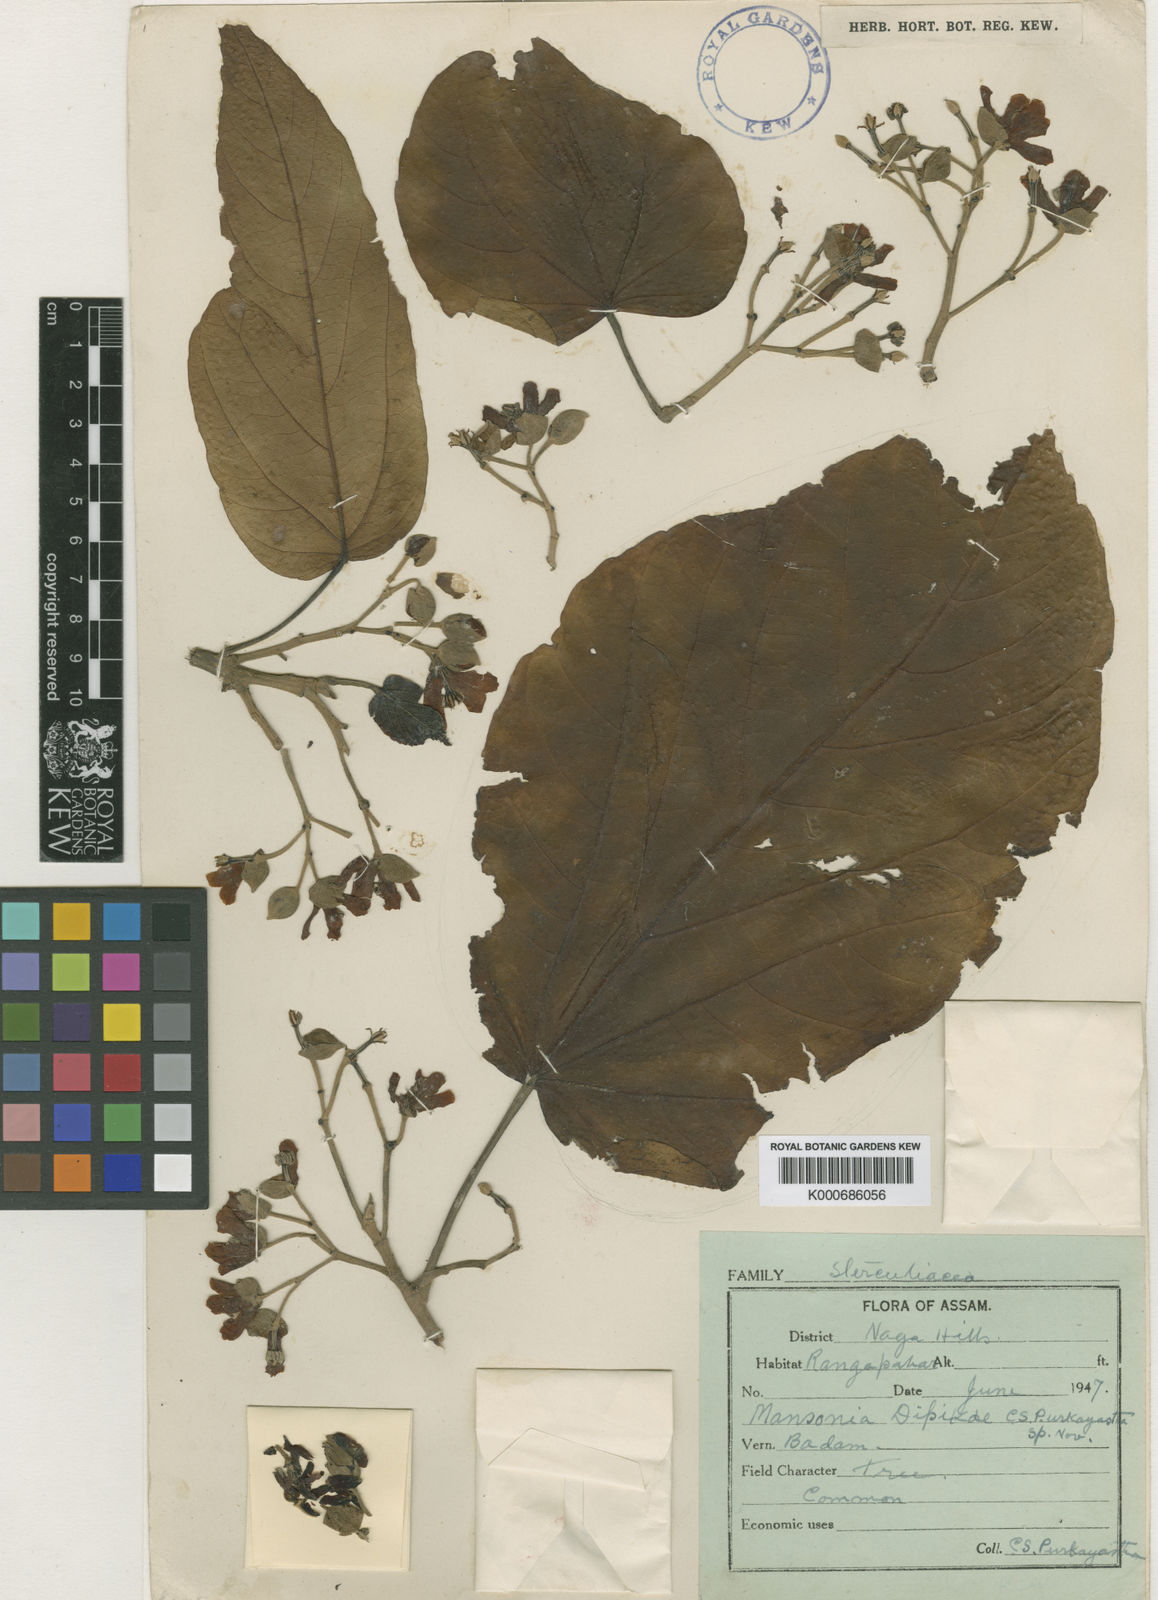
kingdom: Plantae
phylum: Tracheophyta
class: Magnoliopsida
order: Malvales
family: Malvaceae
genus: Mansonia
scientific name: Mansonia dipikae
